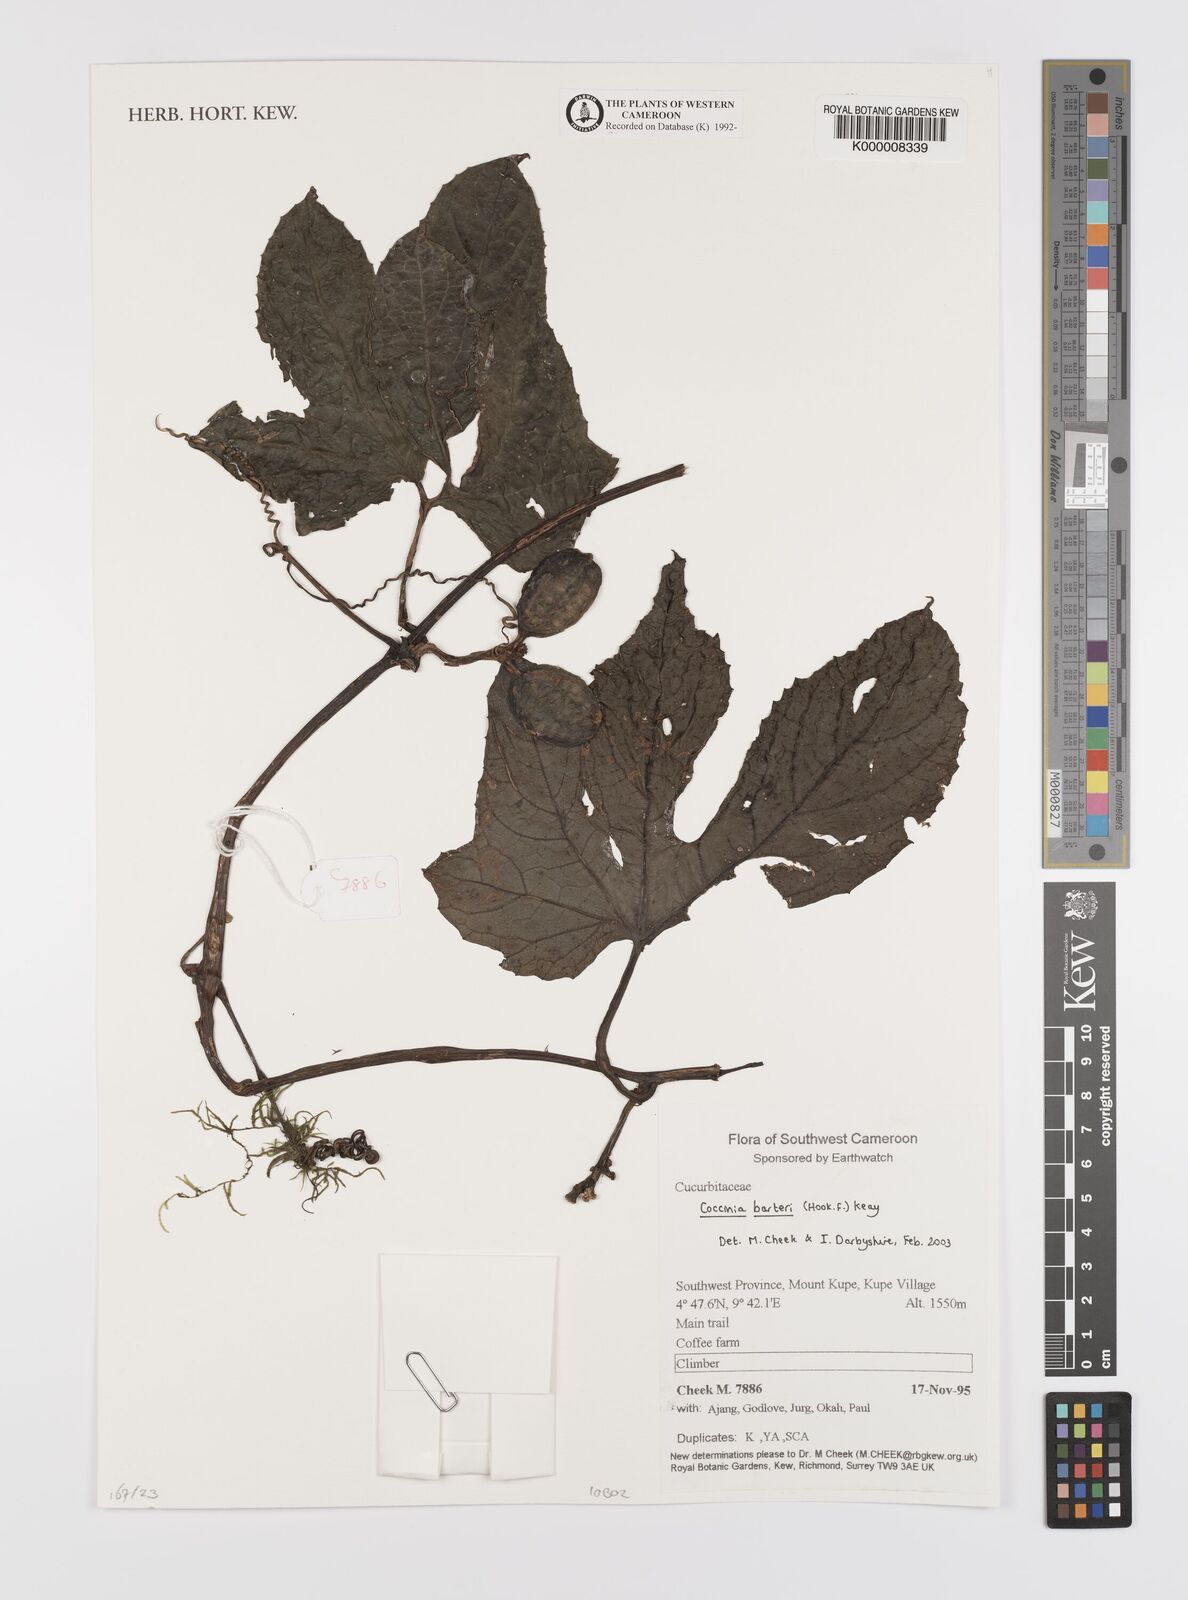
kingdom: Plantae
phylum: Tracheophyta
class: Magnoliopsida
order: Cucurbitales
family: Cucurbitaceae
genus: Coccinia
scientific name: Coccinia barteri
